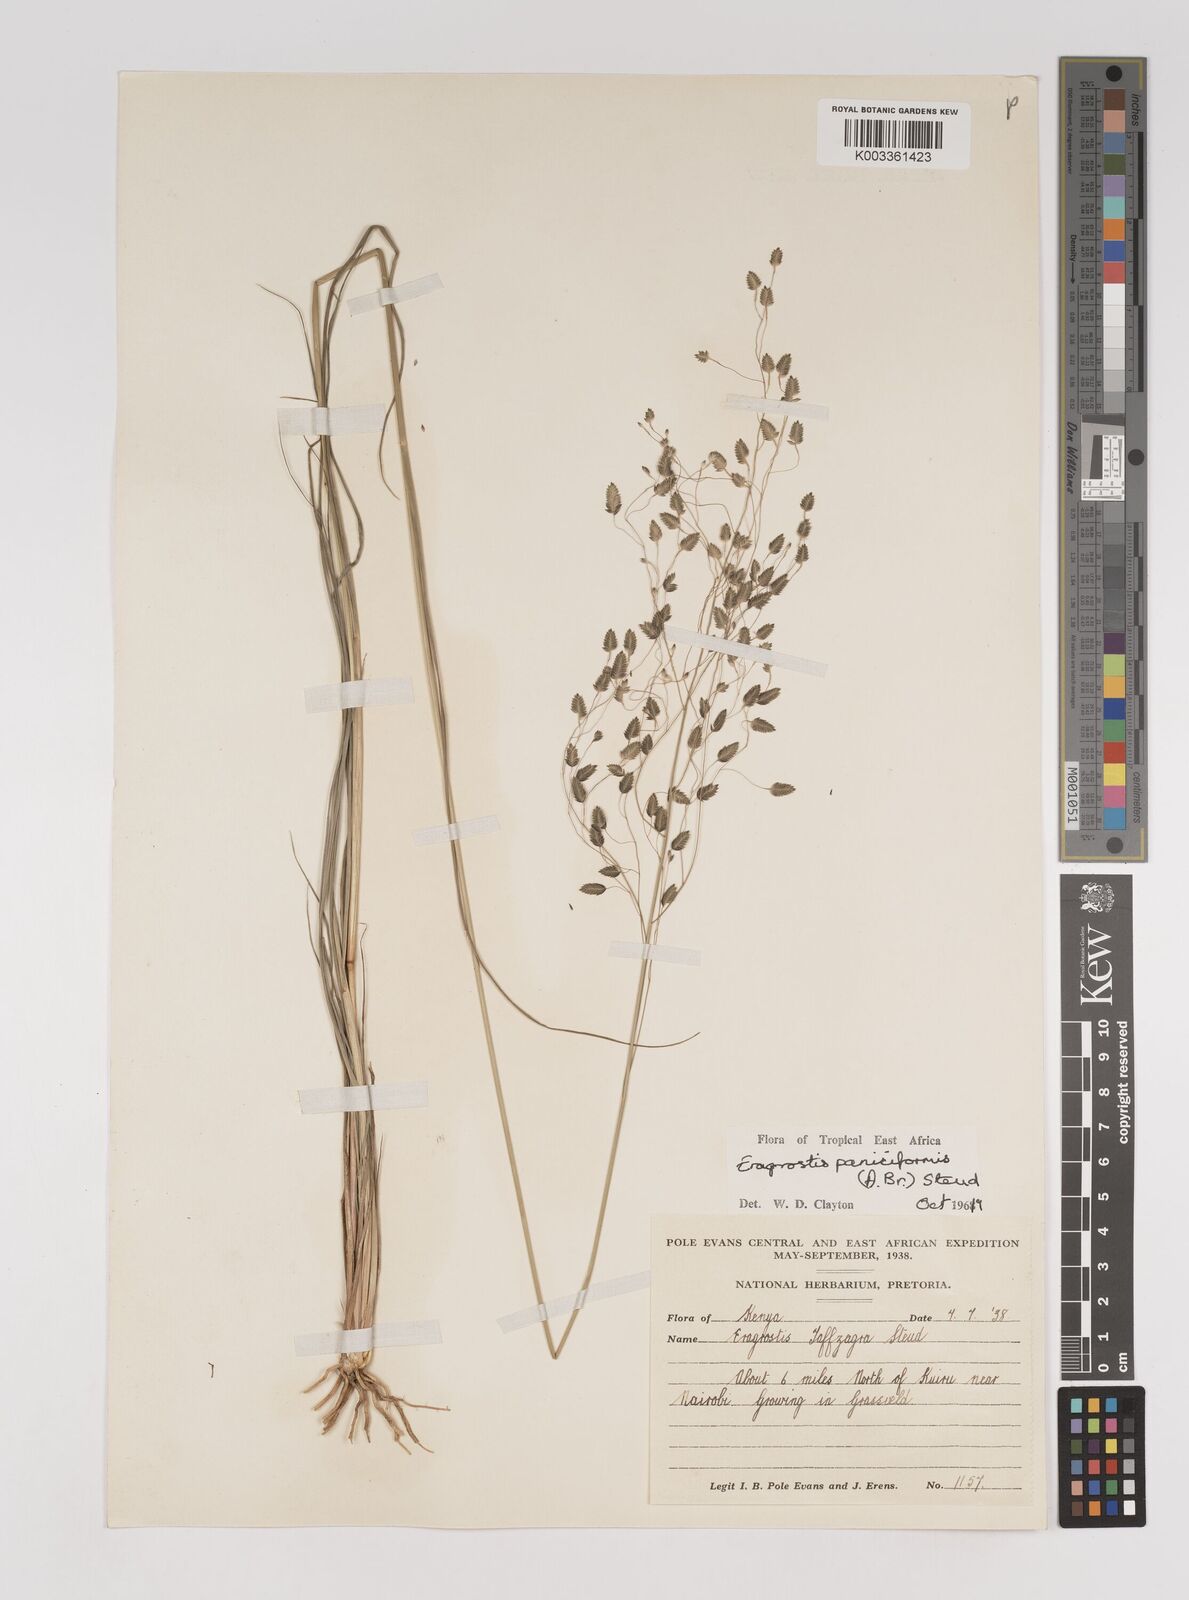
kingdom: Plantae
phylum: Tracheophyta
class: Liliopsida
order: Poales
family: Poaceae
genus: Eragrostis
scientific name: Eragrostis paniciformis
